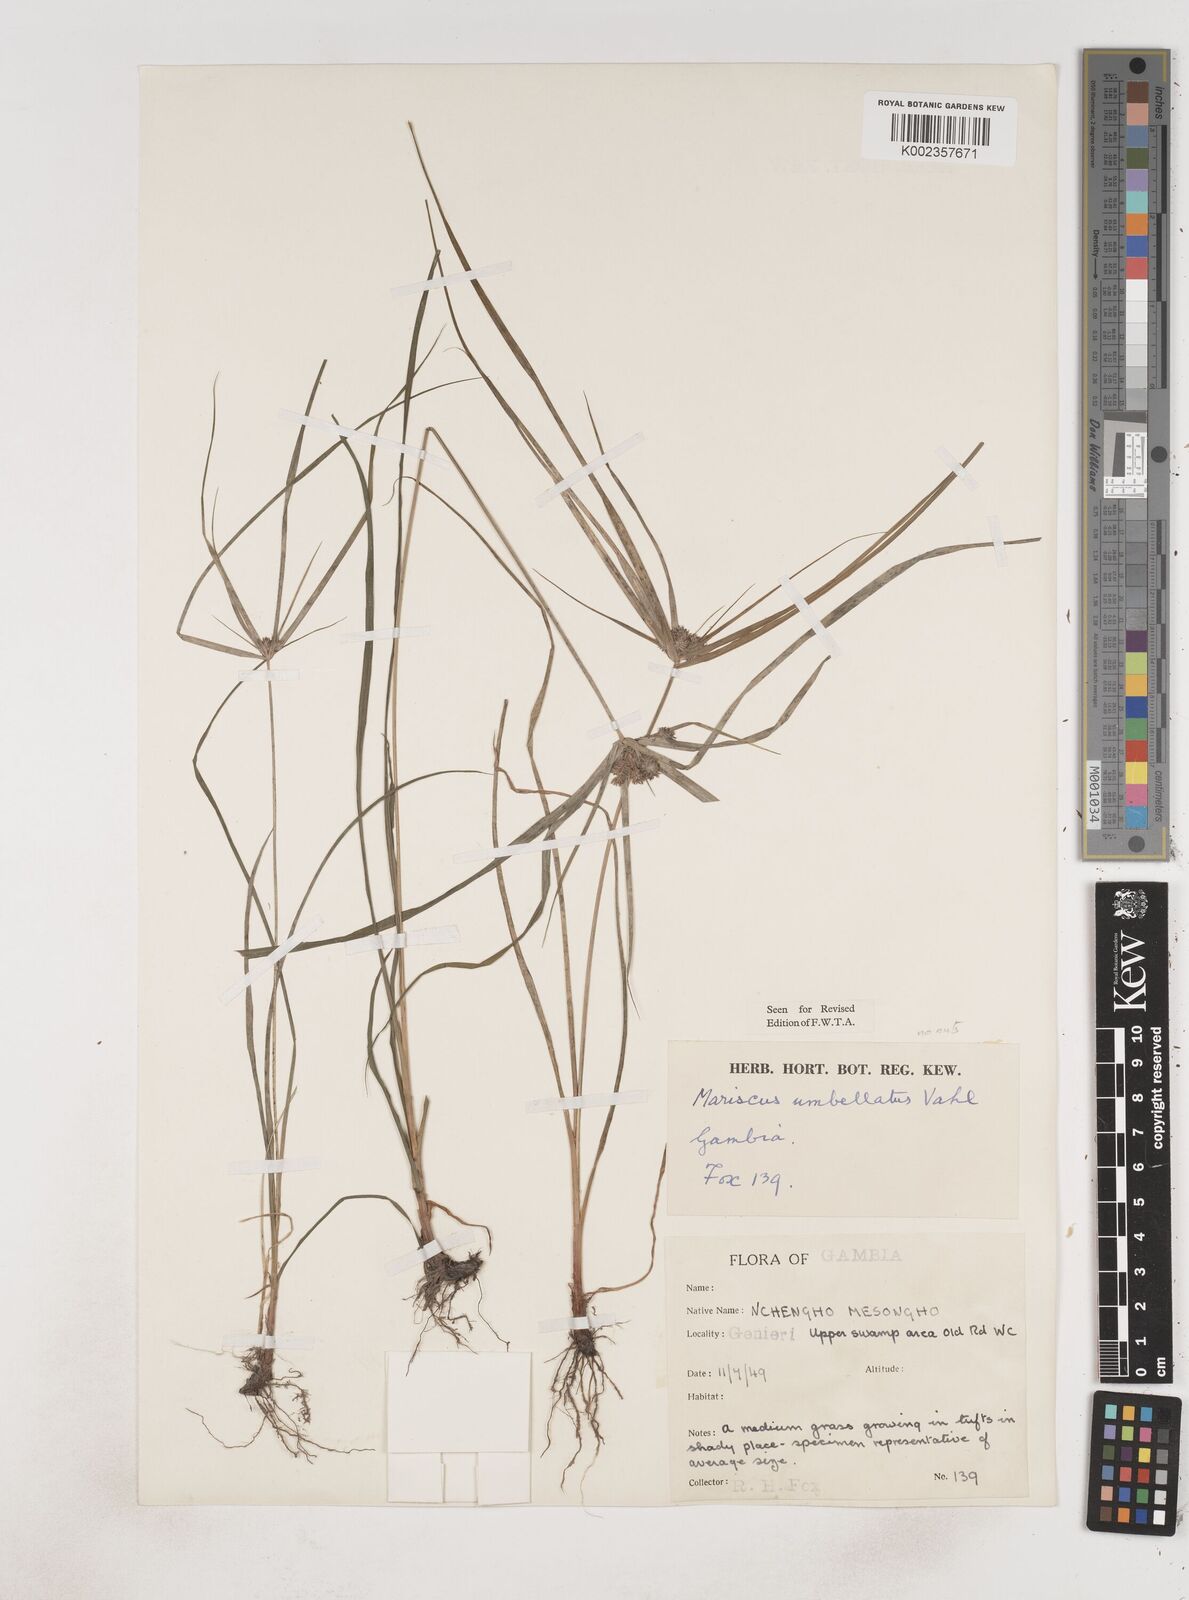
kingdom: Plantae
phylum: Tracheophyta
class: Liliopsida
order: Poales
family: Cyperaceae
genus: Cyperus
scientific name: Cyperus sublimis
